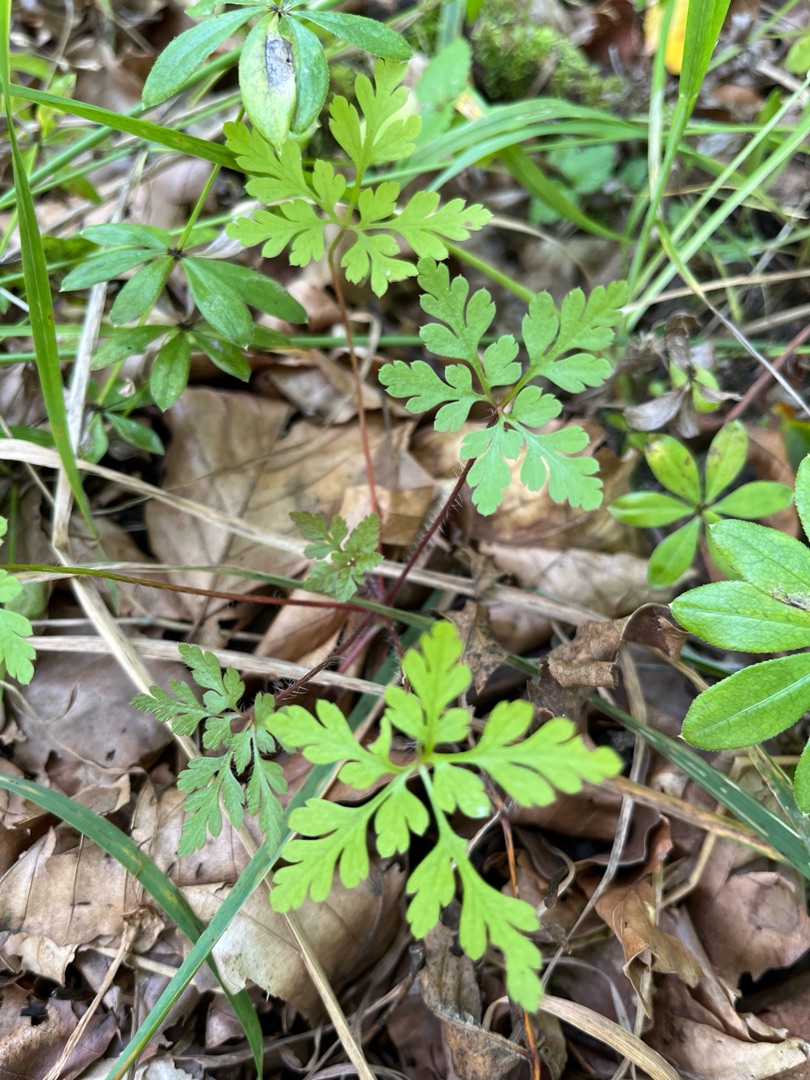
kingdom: Plantae
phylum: Tracheophyta
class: Magnoliopsida
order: Geraniales
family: Geraniaceae
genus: Geranium
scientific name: Geranium robertianum
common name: Stinkende storkenæb
